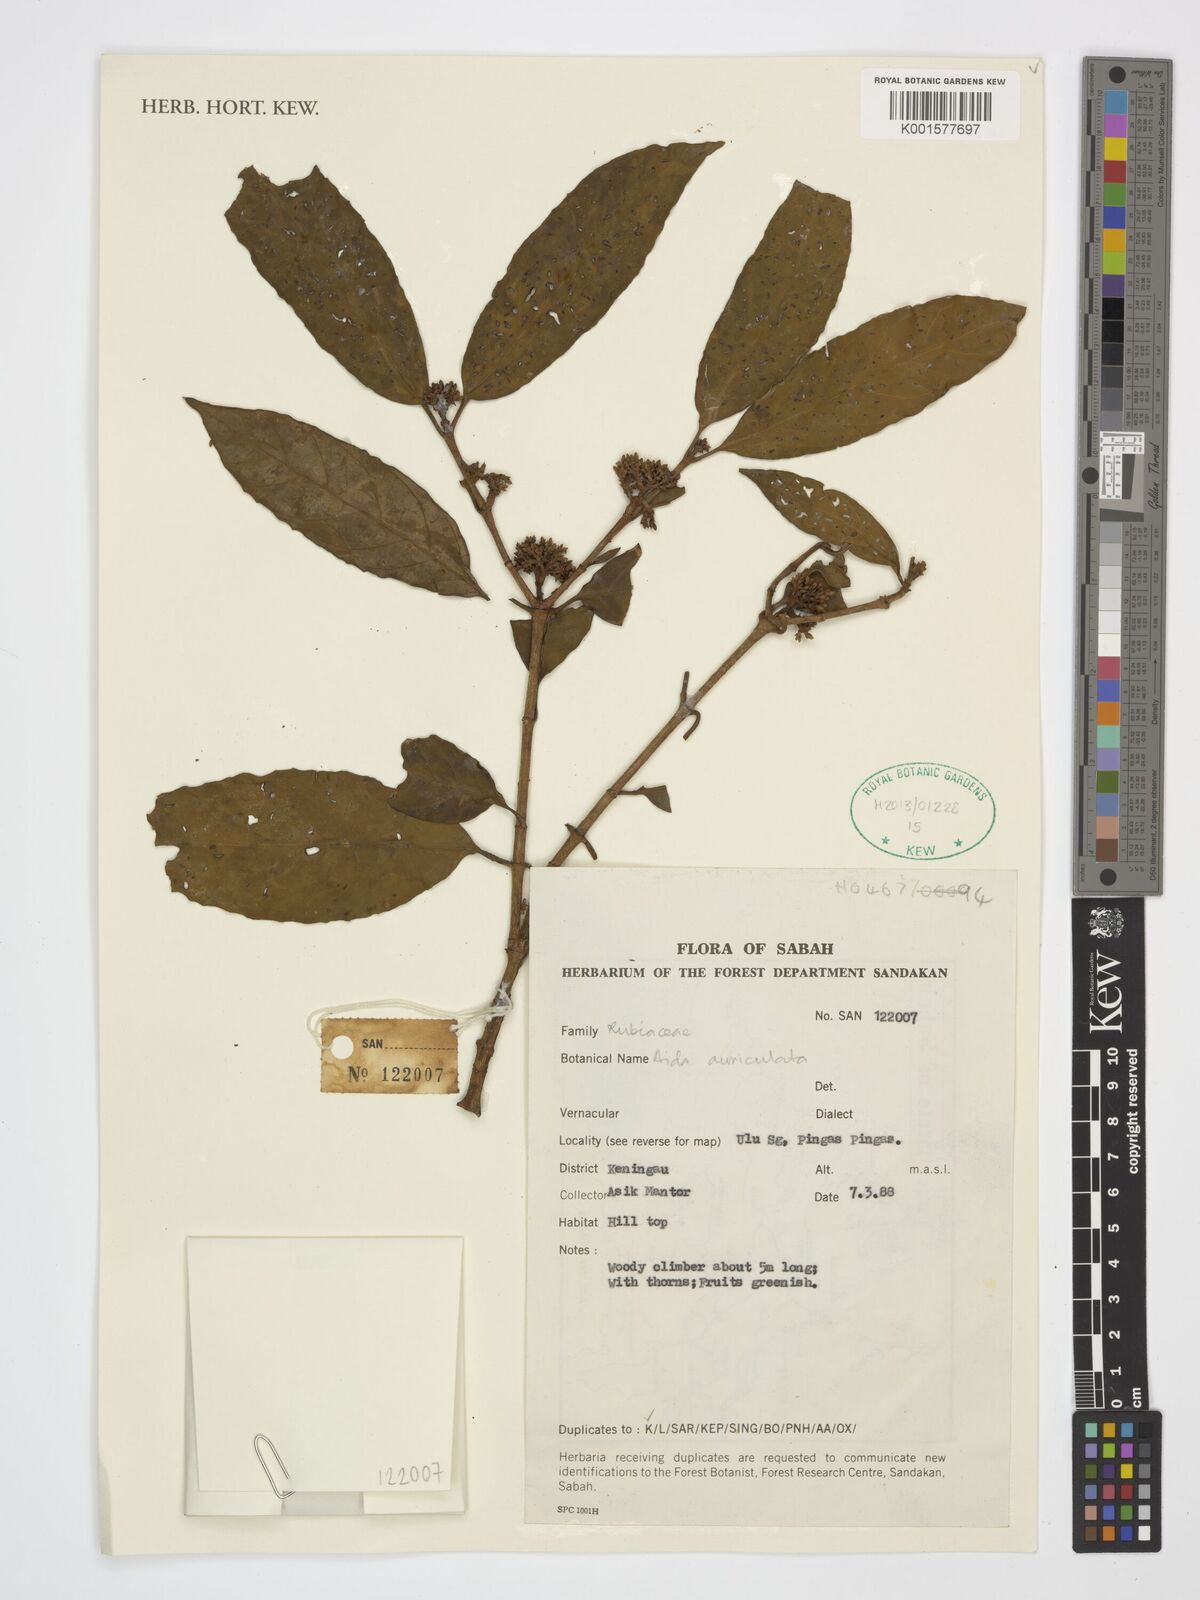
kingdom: Plantae
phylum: Tracheophyta
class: Magnoliopsida
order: Gentianales
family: Rubiaceae
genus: Aidia
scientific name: Aidia auriculata
